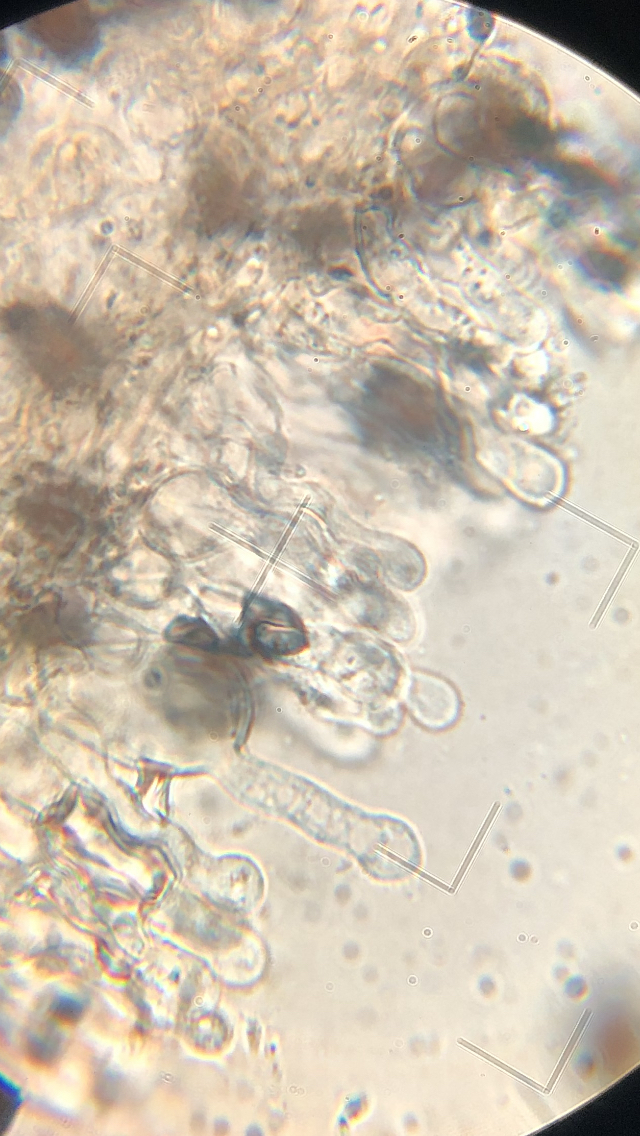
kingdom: Fungi
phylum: Basidiomycota
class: Agaricomycetes
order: Agaricales
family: Bolbitiaceae
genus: Panaeolus
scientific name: Panaeolus papilionaceus
